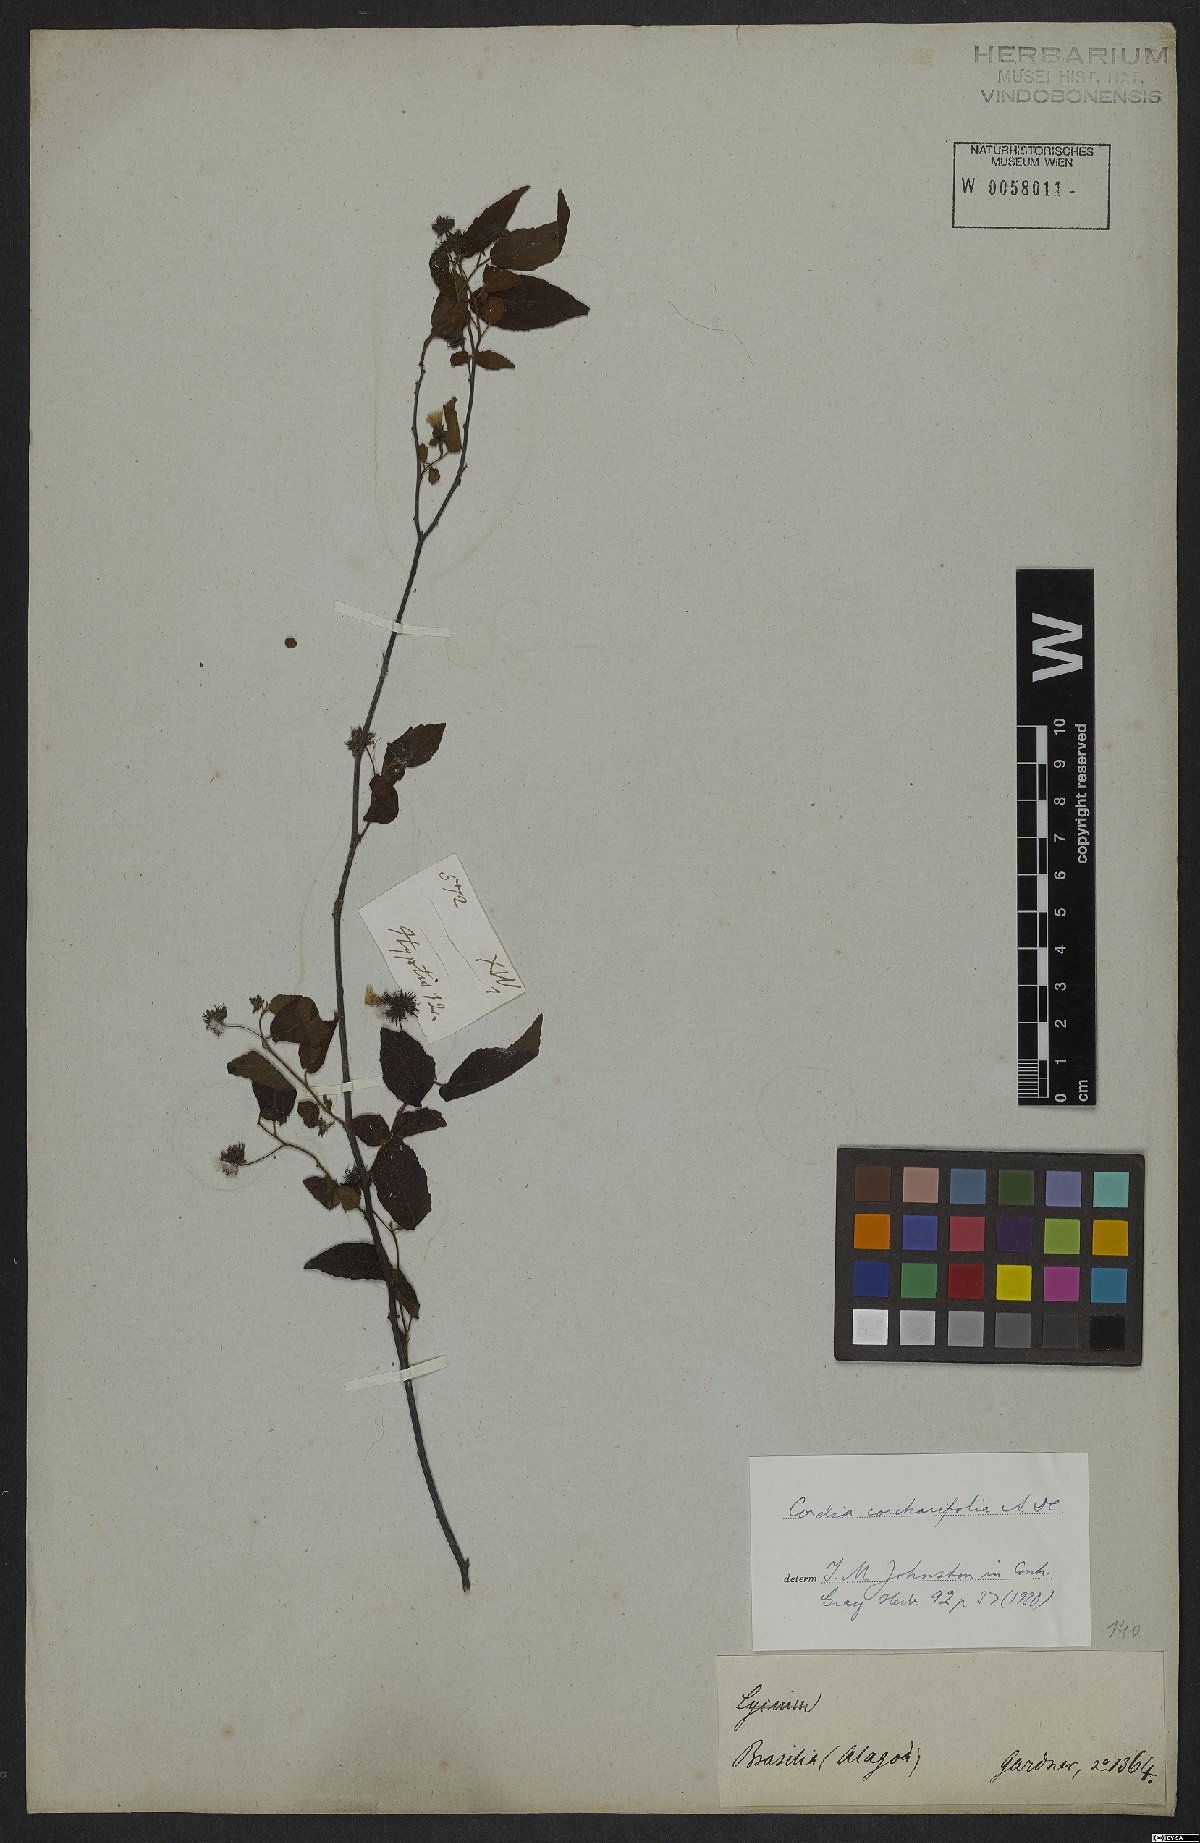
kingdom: Plantae
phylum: Tracheophyta
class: Magnoliopsida
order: Boraginales
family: Cordiaceae
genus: Varronia
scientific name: Varronia corchorifolia
